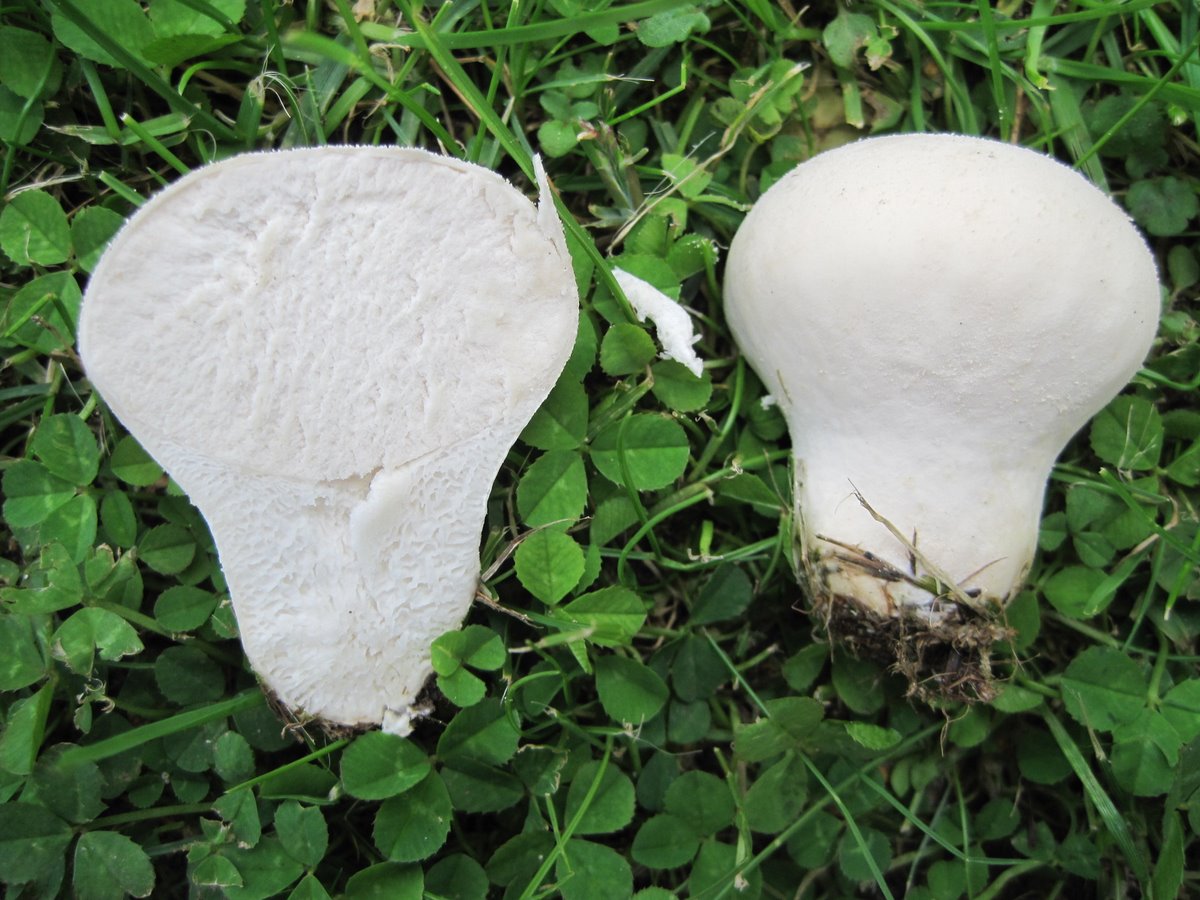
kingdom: Fungi
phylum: Basidiomycota
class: Agaricomycetes
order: Agaricales
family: Lycoperdaceae
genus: Lycoperdon
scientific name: Lycoperdon pratense
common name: flad støvbold
